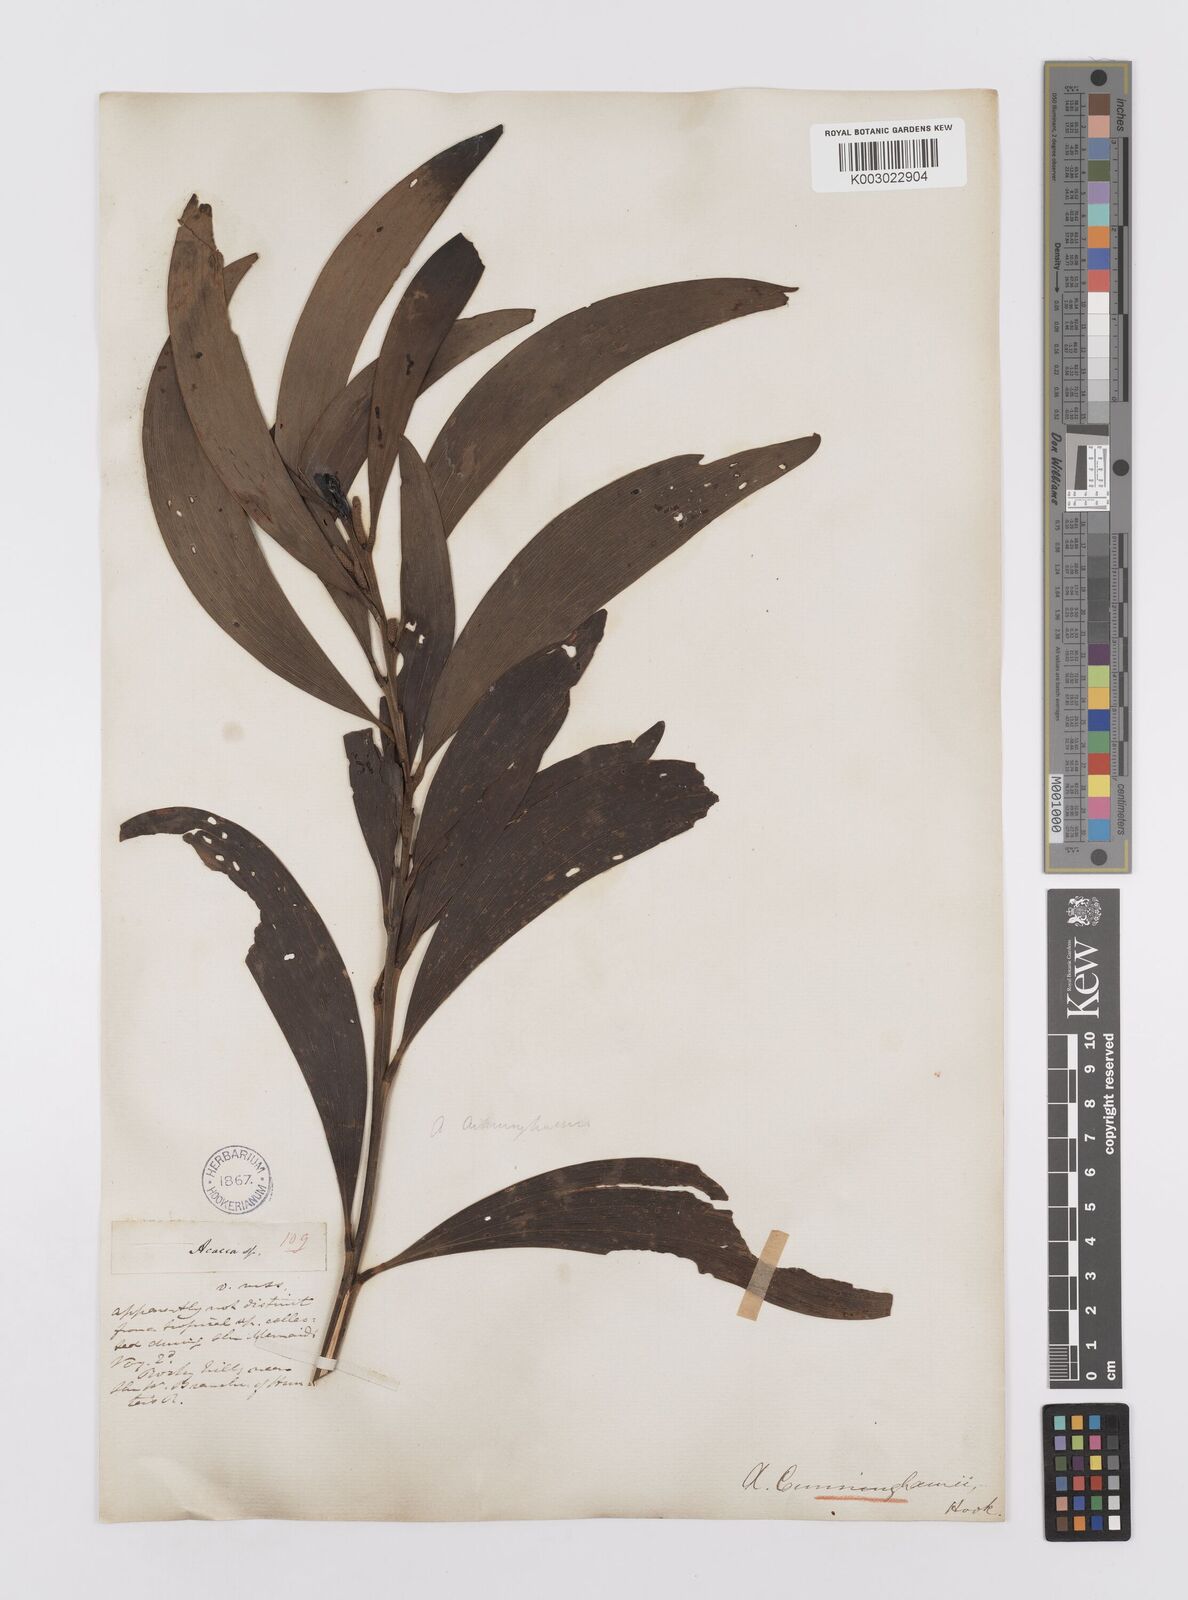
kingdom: Plantae
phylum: Tracheophyta
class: Magnoliopsida
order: Fabales
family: Fabaceae
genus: Acacia
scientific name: Acacia longispicata
